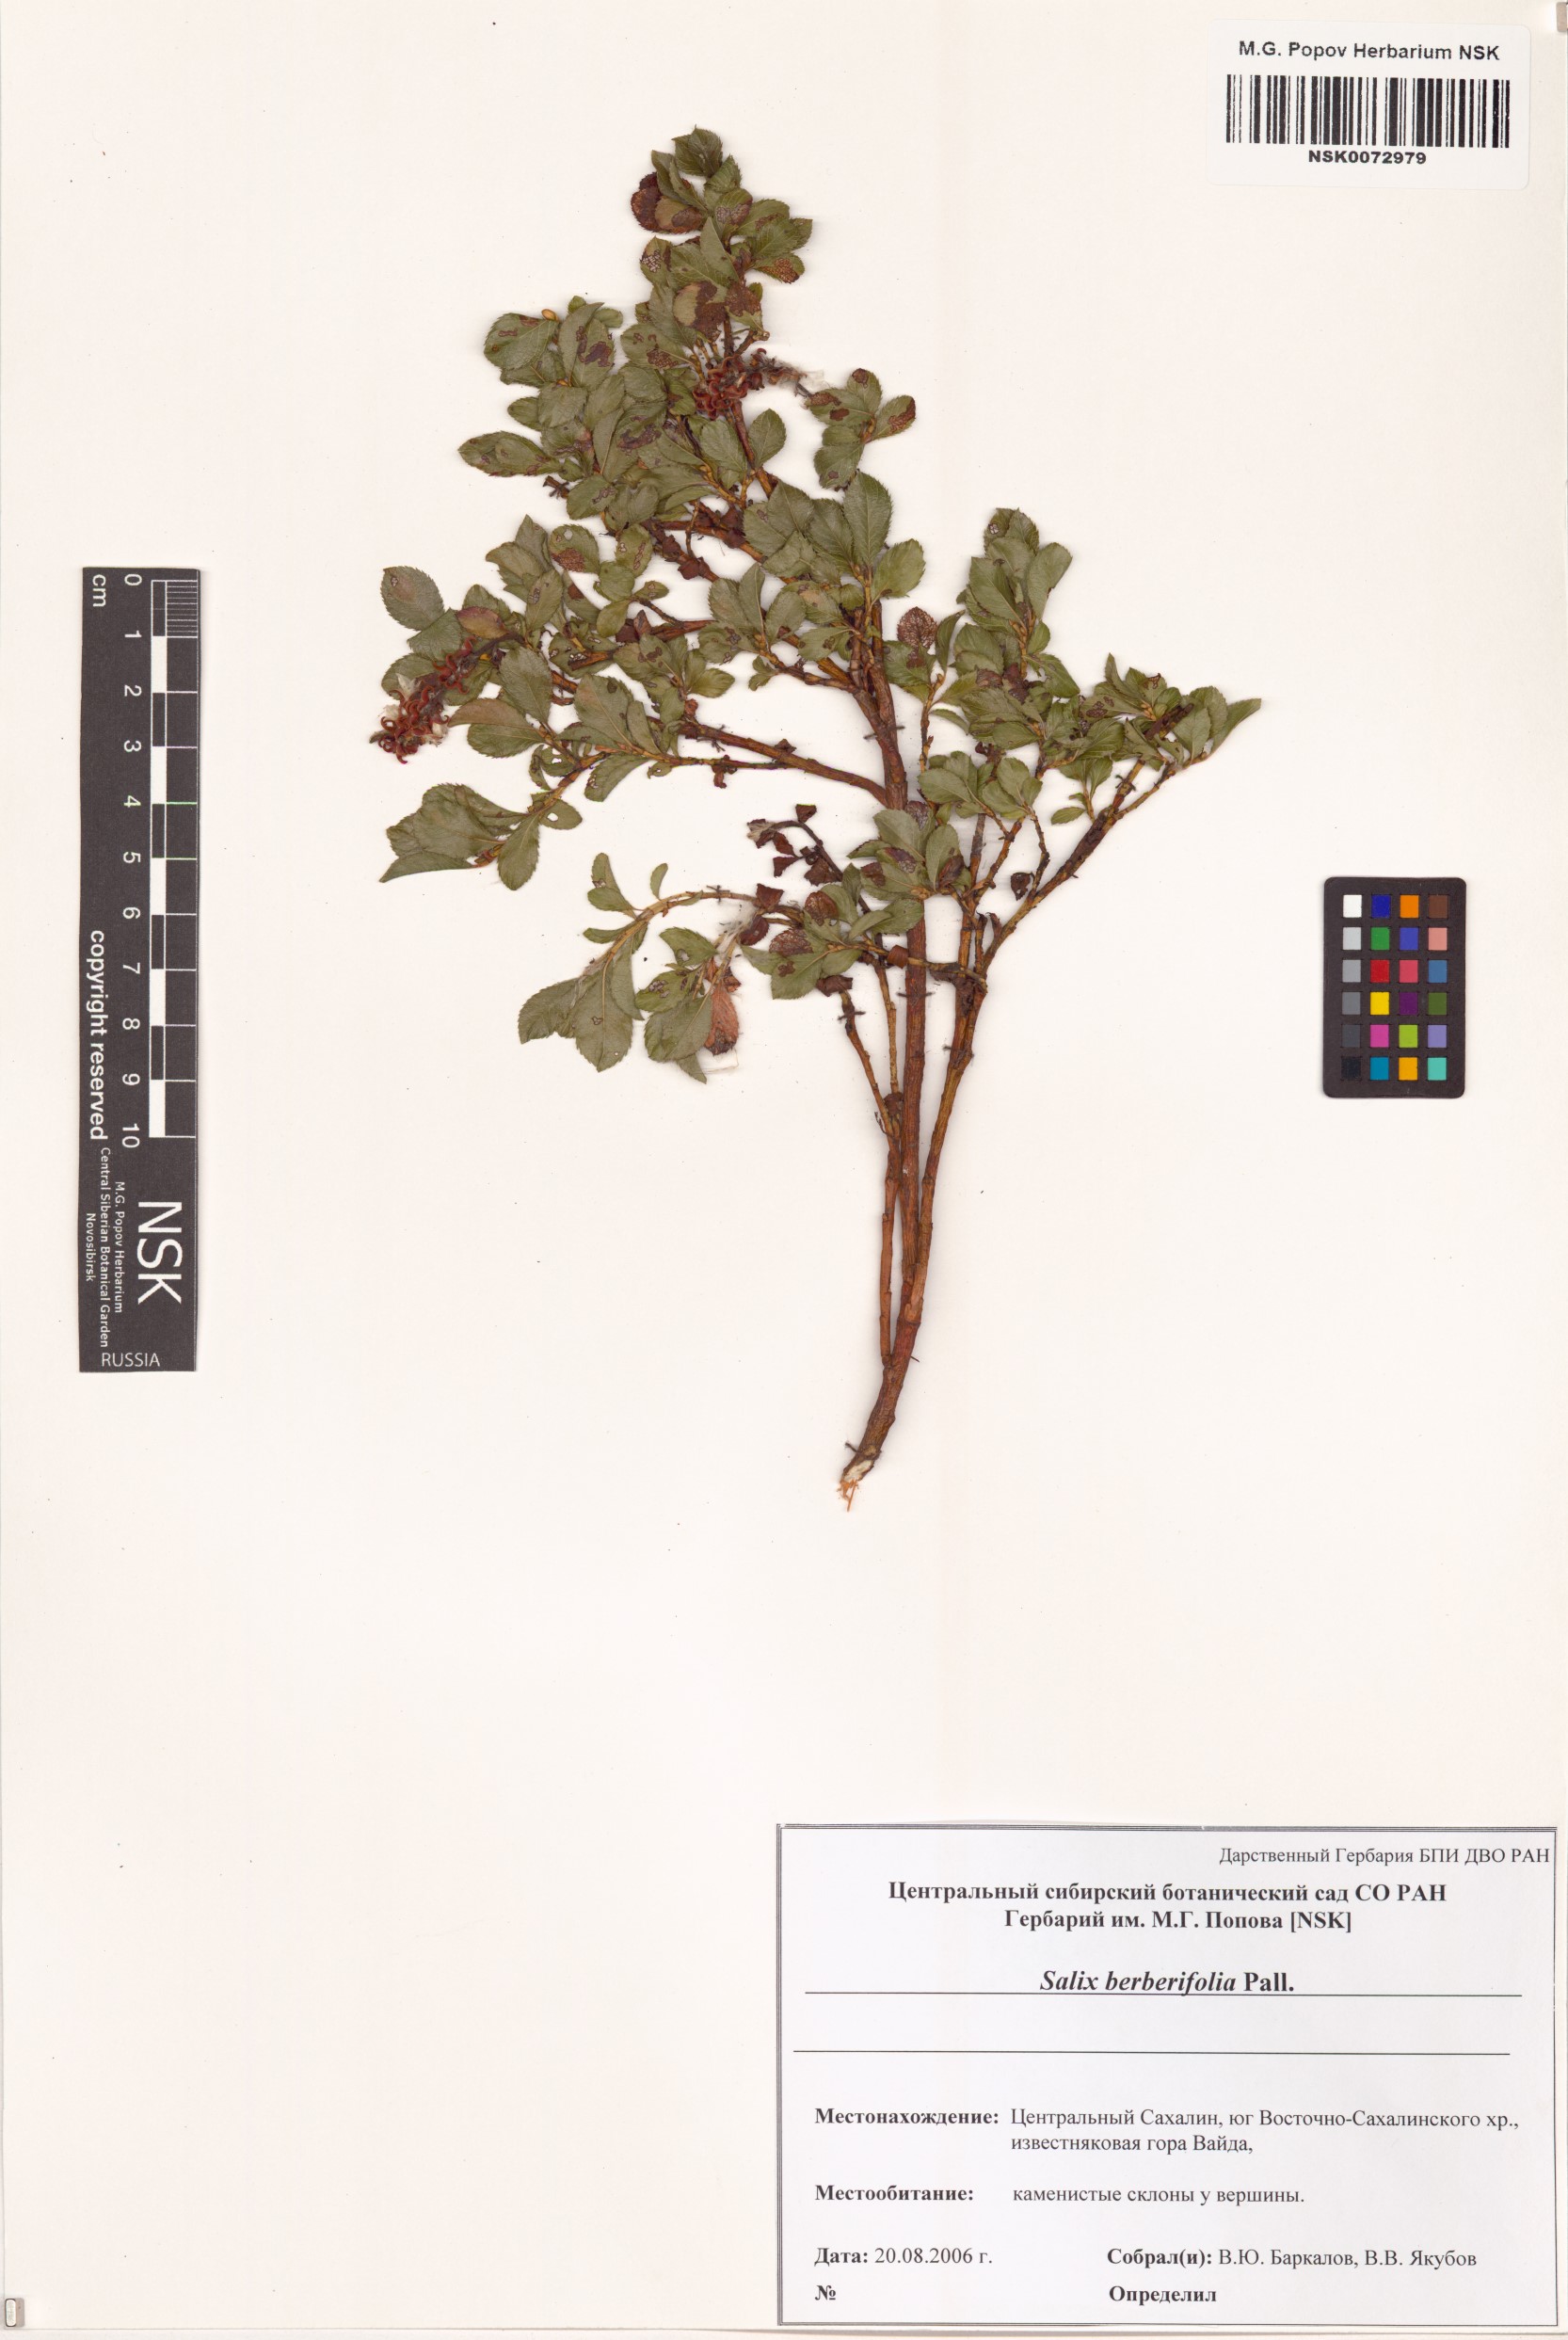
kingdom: Plantae
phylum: Tracheophyta
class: Magnoliopsida
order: Malpighiales
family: Salicaceae
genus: Salix
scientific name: Salix berberifolia
